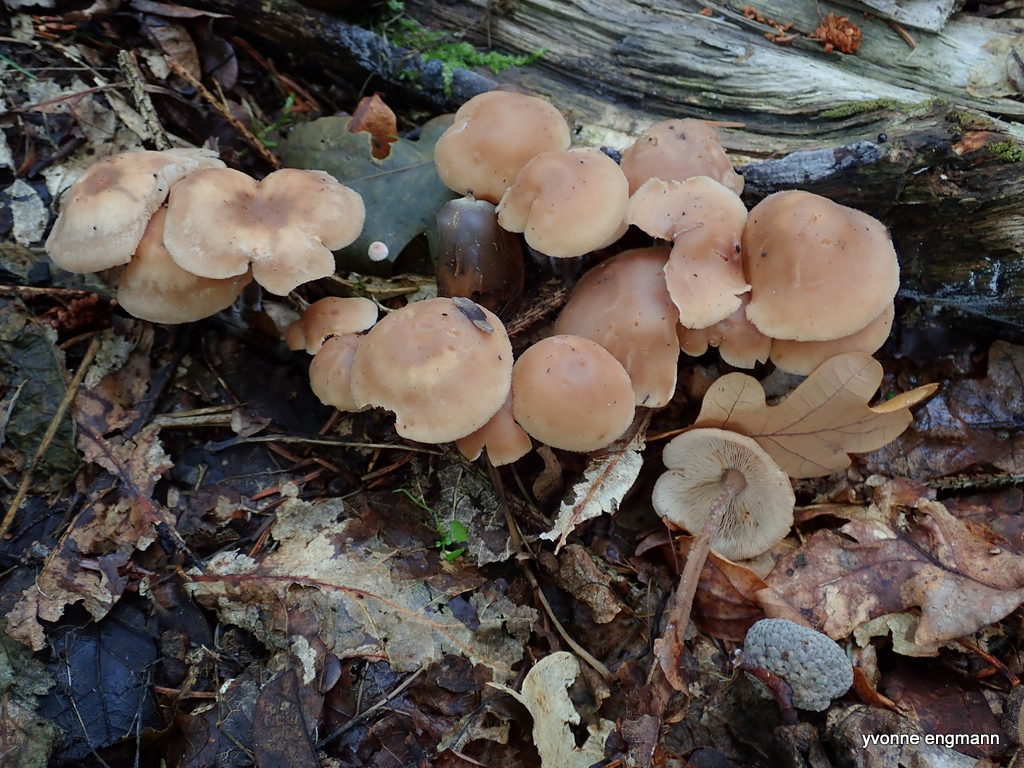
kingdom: Fungi
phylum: Basidiomycota
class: Agaricomycetes
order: Agaricales
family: Omphalotaceae
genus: Collybiopsis
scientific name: Collybiopsis confluens
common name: knippe-fladhat
